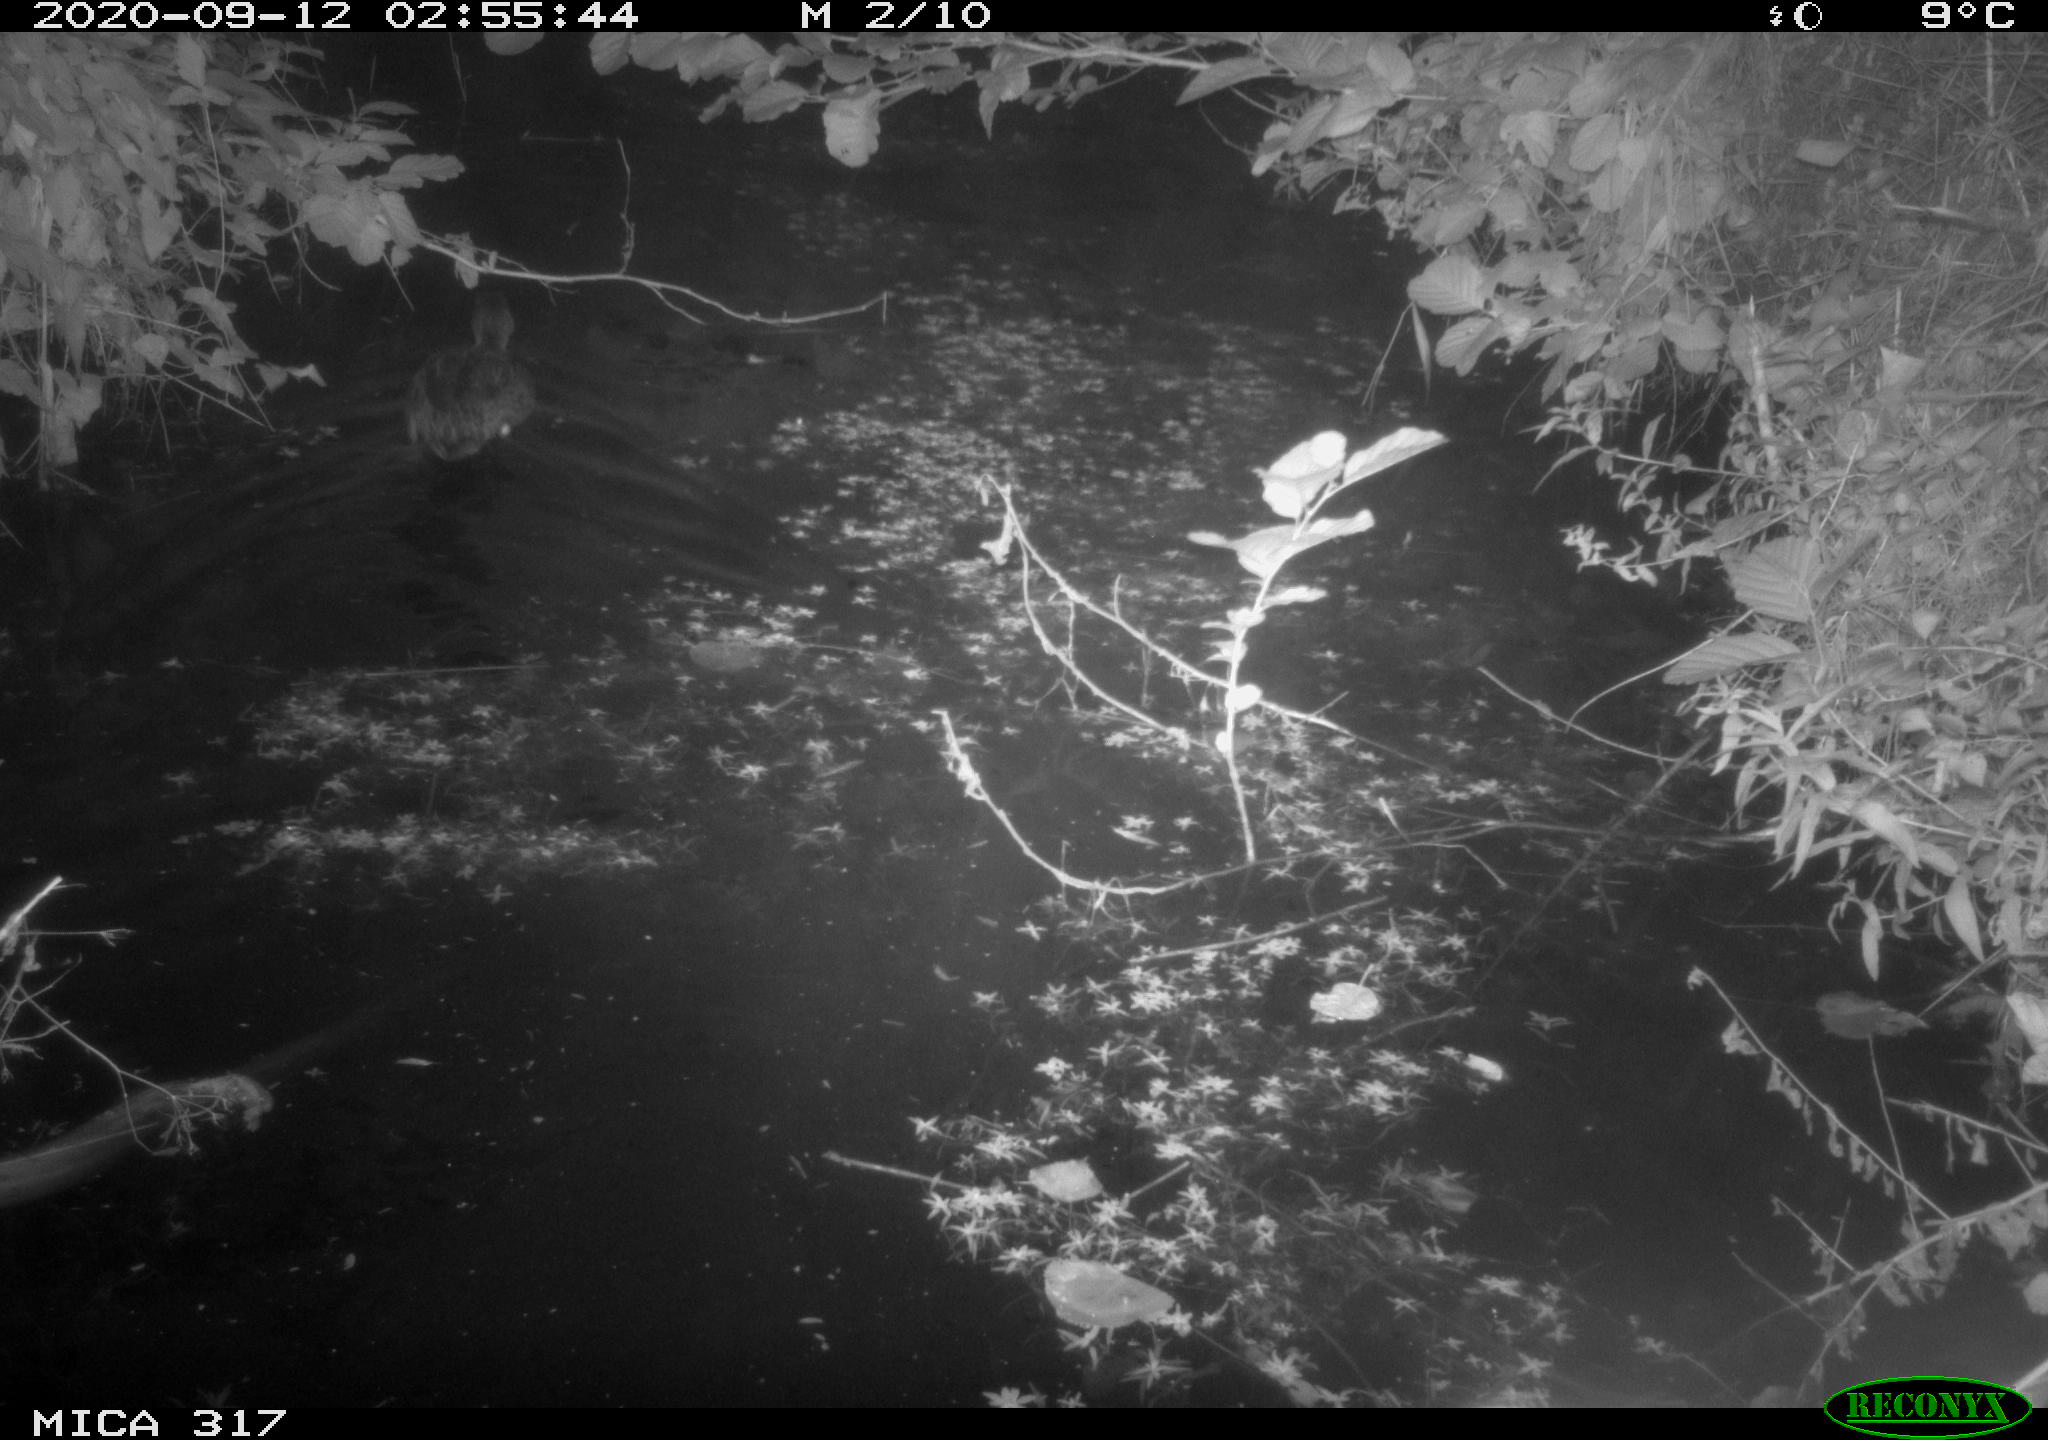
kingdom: Animalia
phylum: Chordata
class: Aves
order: Anseriformes
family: Anatidae
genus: Anas
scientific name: Anas platyrhynchos
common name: Mallard
